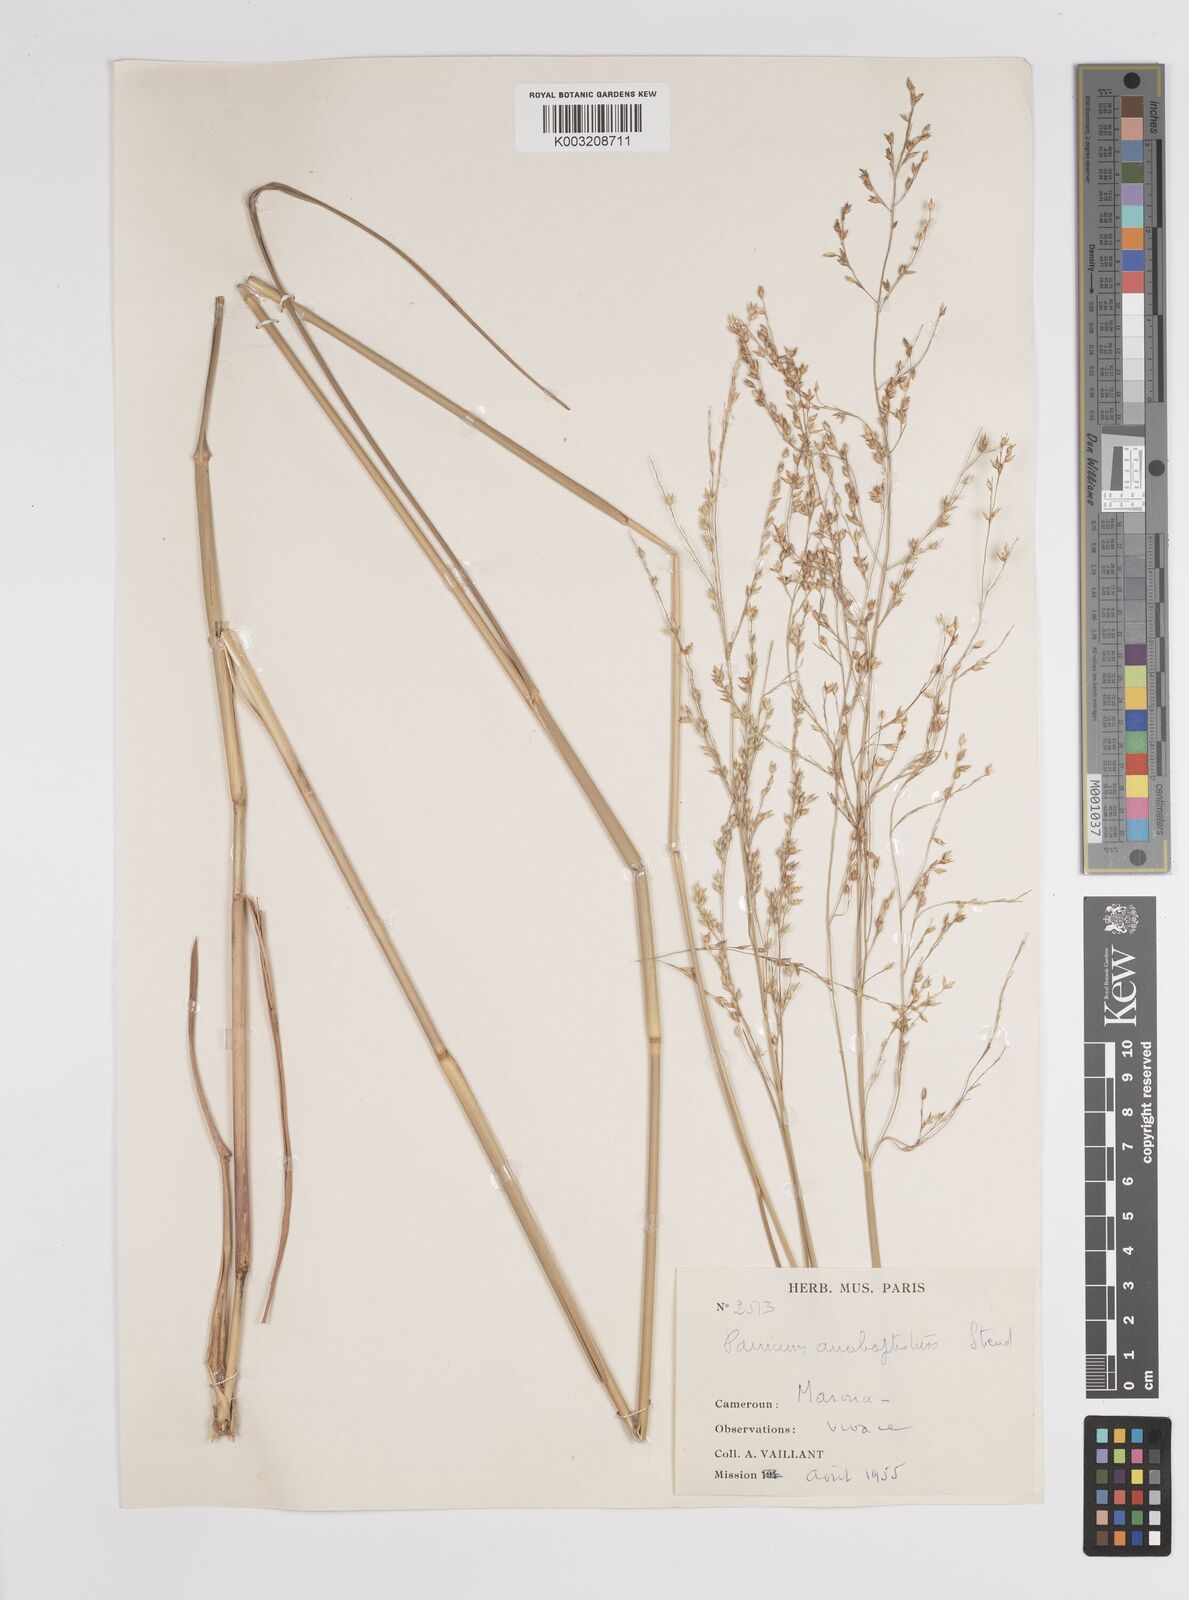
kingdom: Plantae
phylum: Tracheophyta
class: Liliopsida
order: Poales
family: Poaceae
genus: Panicum
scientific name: Panicum anabaptistum
